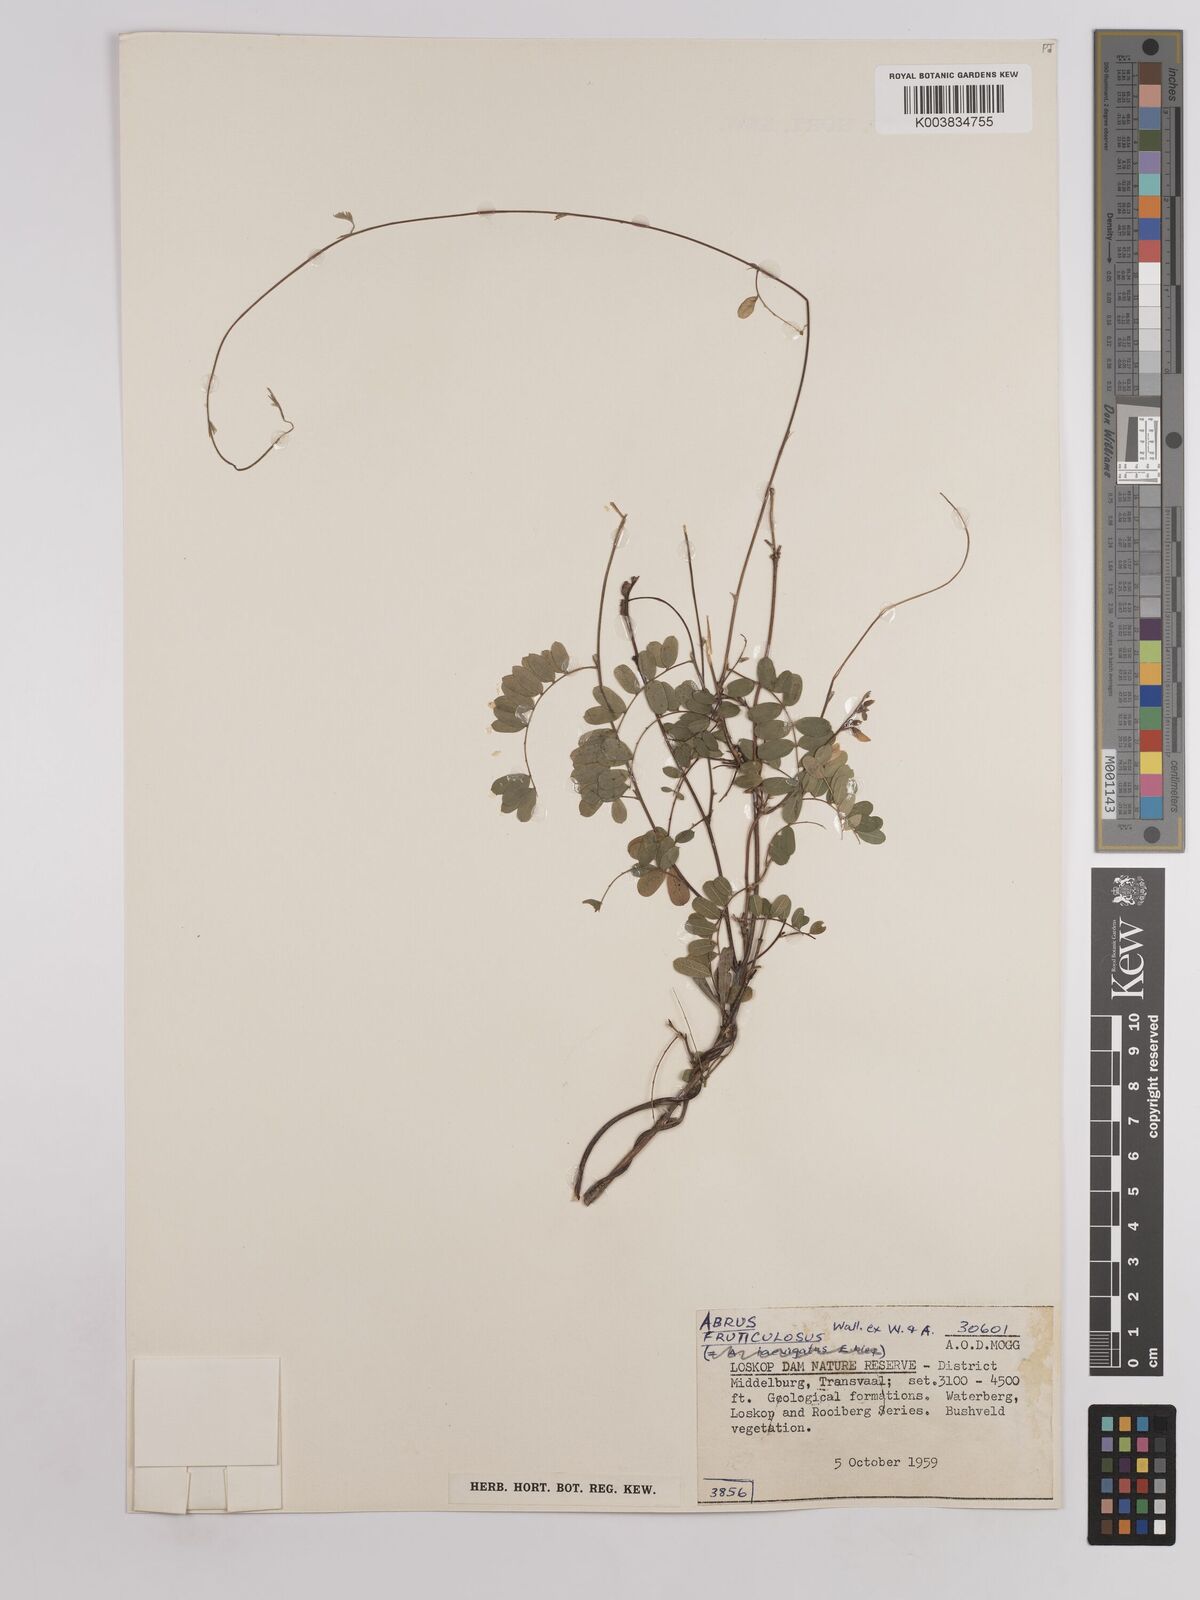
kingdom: Plantae
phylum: Tracheophyta
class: Magnoliopsida
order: Fabales
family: Fabaceae
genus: Abrus
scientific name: Abrus laevigatus
